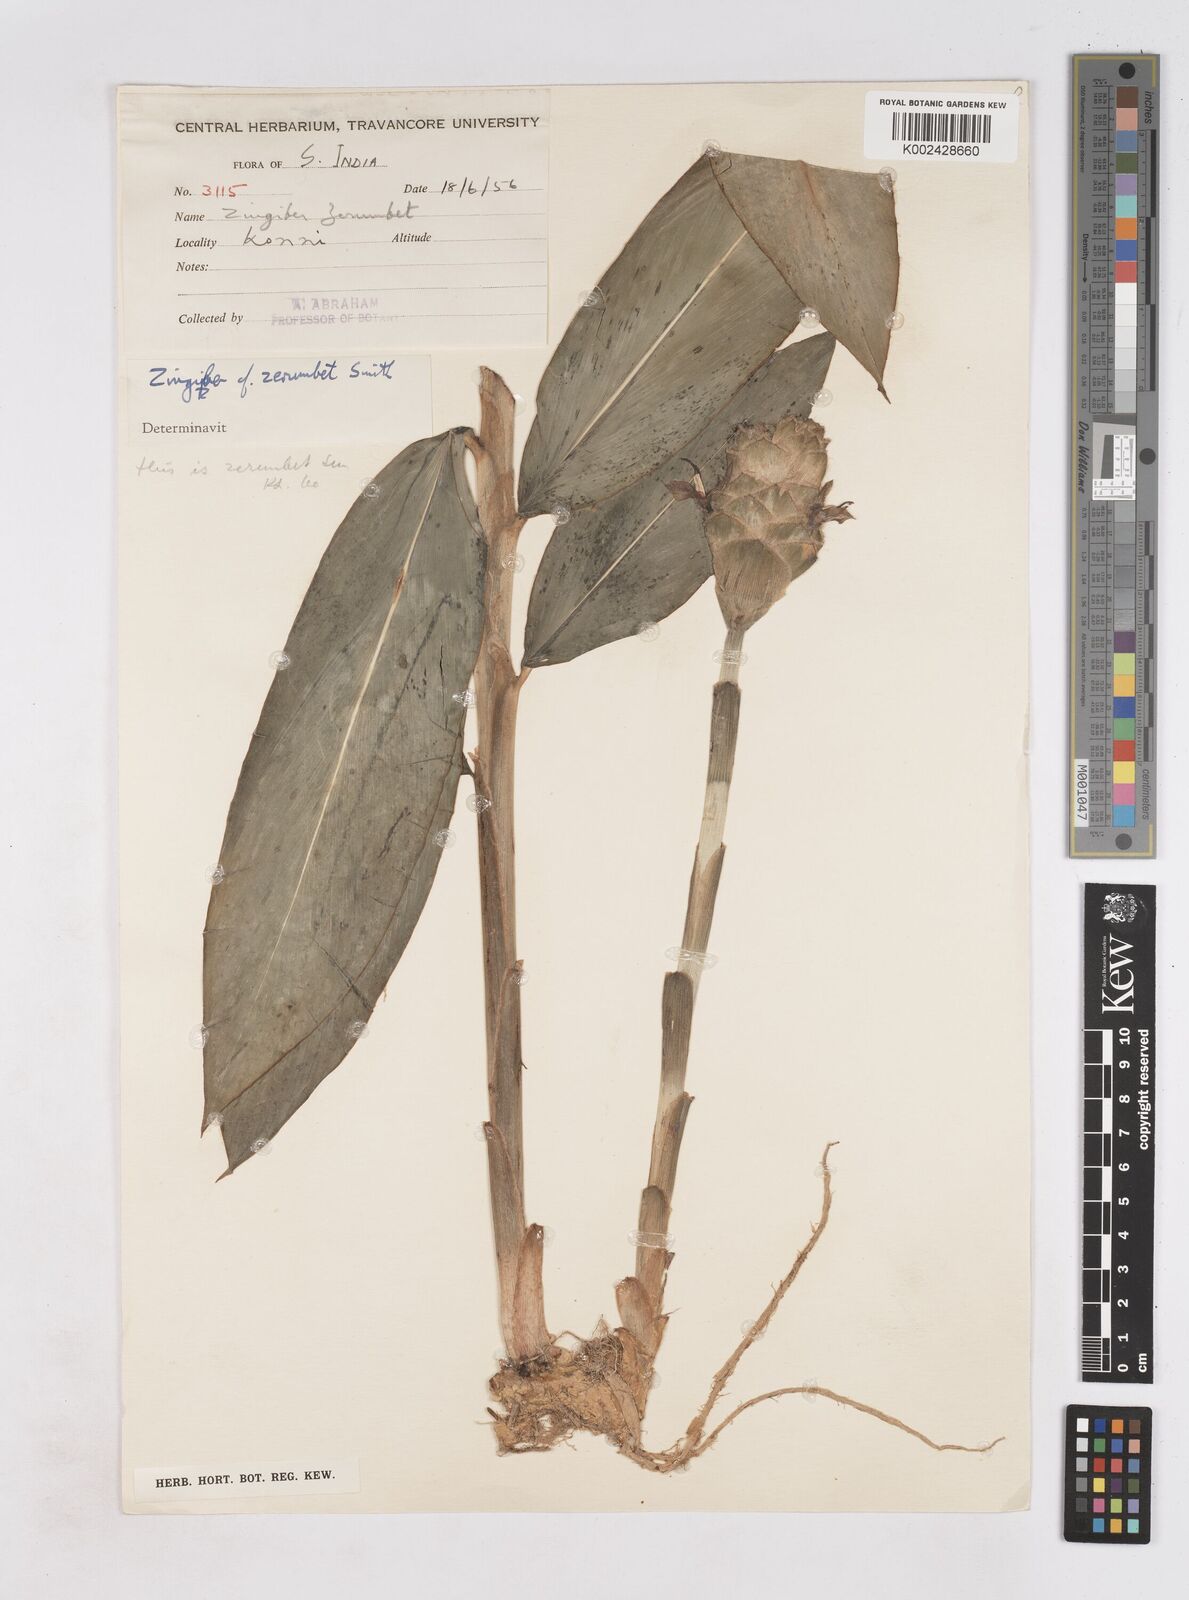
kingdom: Plantae
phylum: Tracheophyta
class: Liliopsida
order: Zingiberales
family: Zingiberaceae
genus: Zingiber
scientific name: Zingiber zerumbet
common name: Bitter ginger
